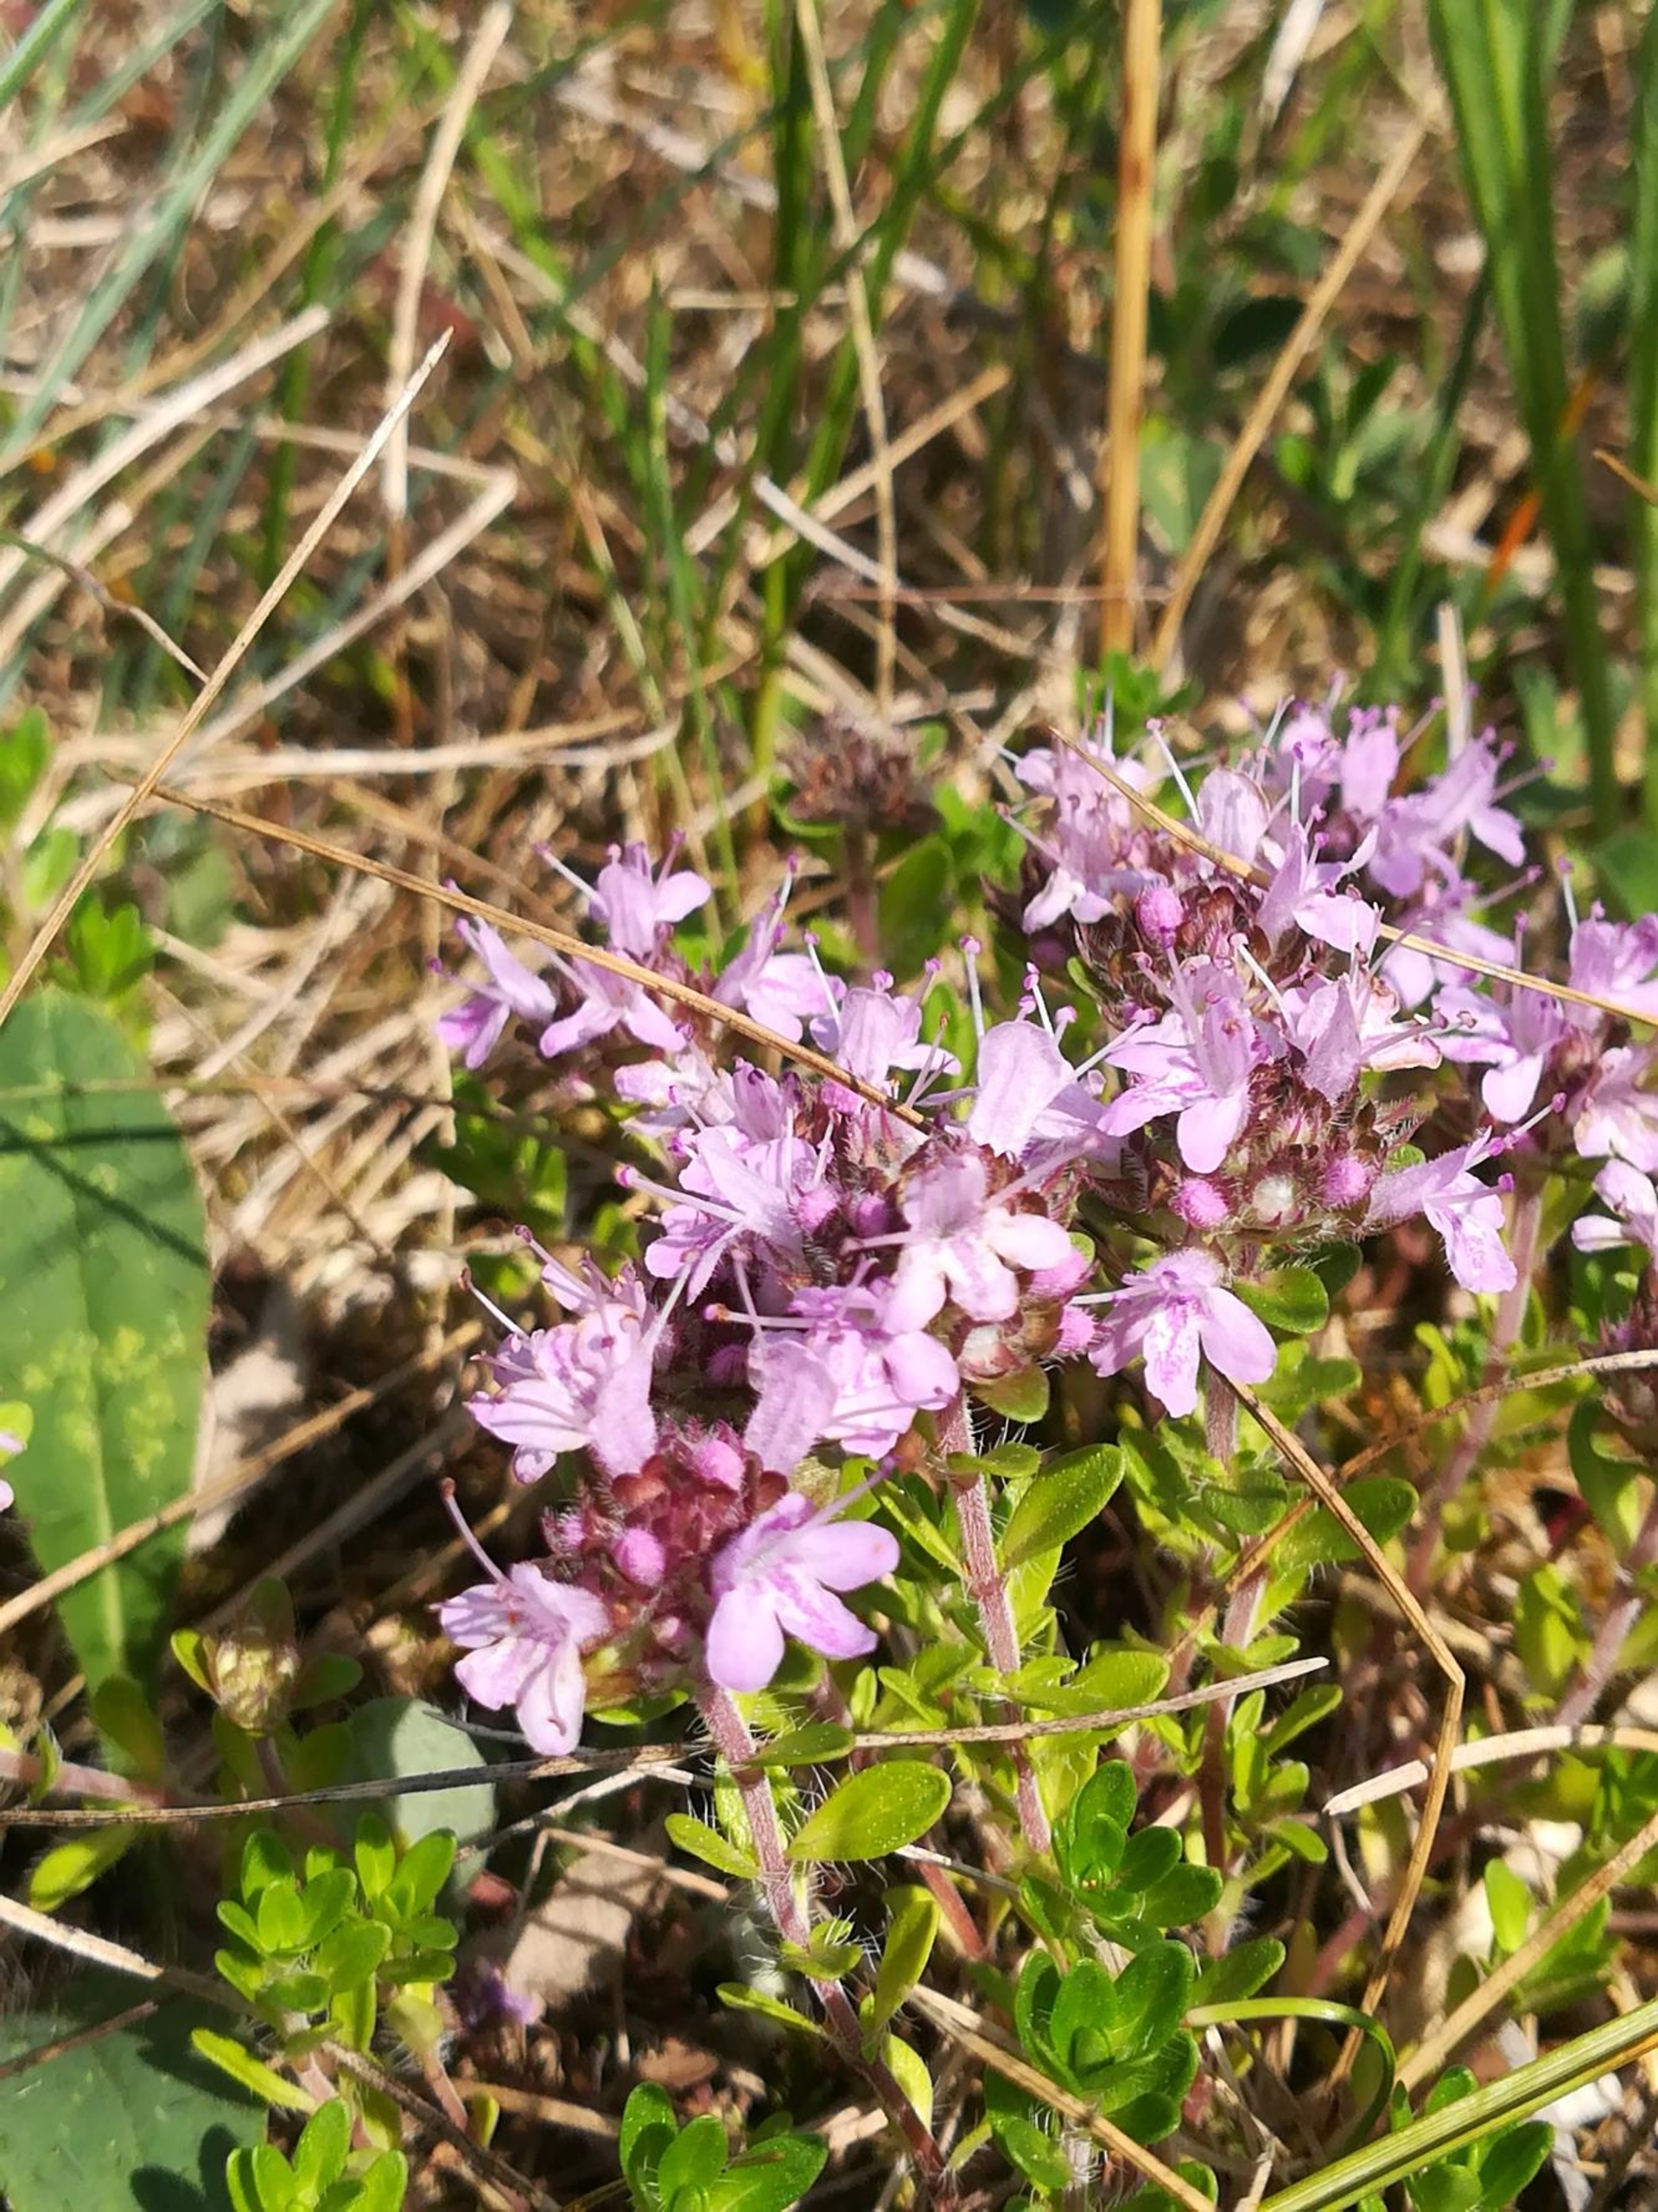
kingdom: Plantae
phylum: Tracheophyta
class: Magnoliopsida
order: Lamiales
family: Lamiaceae
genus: Thymus
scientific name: Thymus serpyllum
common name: Smalbladet timian
